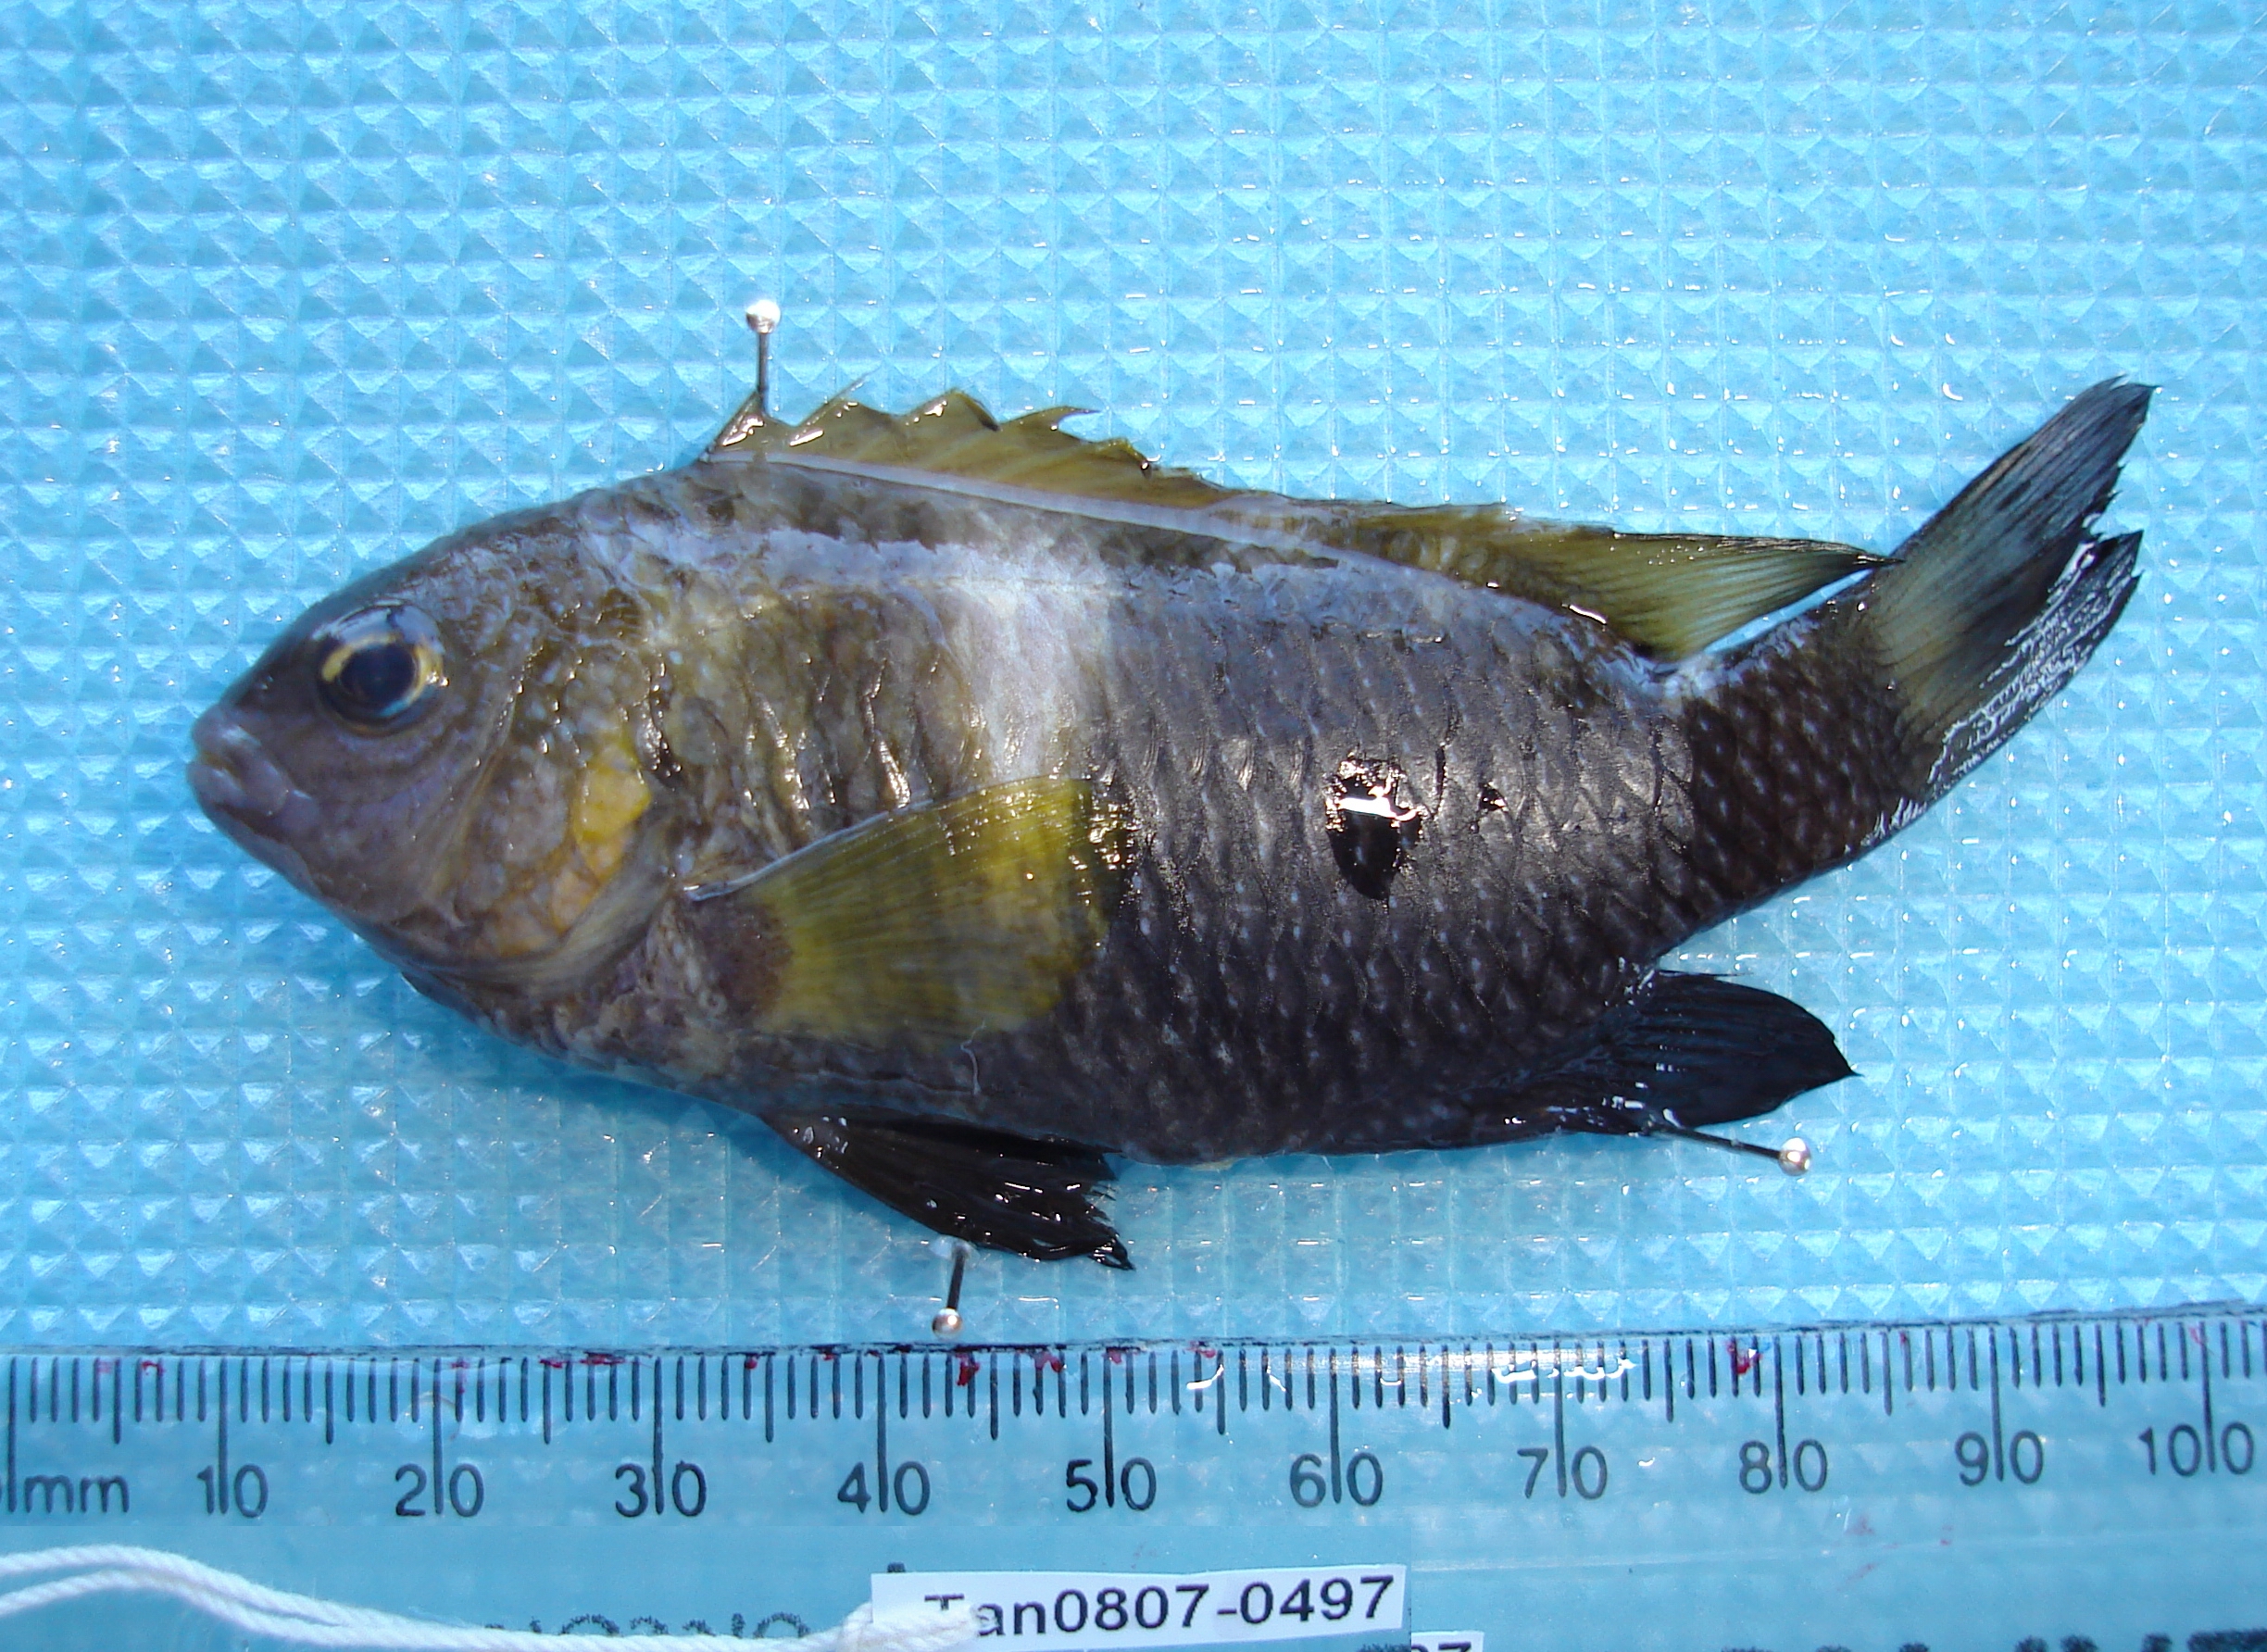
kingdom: Animalia
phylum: Chordata
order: Perciformes
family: Pomacentridae
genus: Chrysiptera
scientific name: Chrysiptera unimaculata
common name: Onespot demoiselle
